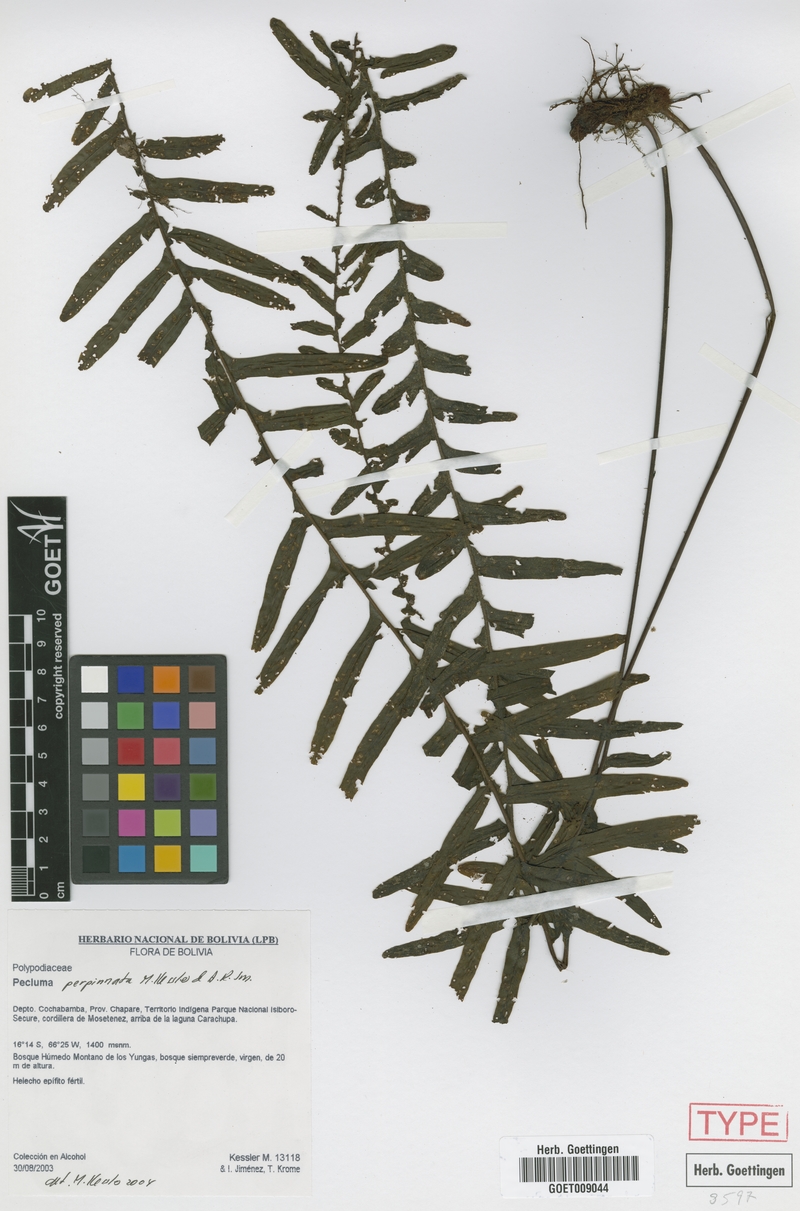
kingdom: Plantae
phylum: Tracheophyta
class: Polypodiopsida
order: Polypodiales
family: Polypodiaceae
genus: Pecluma
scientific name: Pecluma perpinnata
